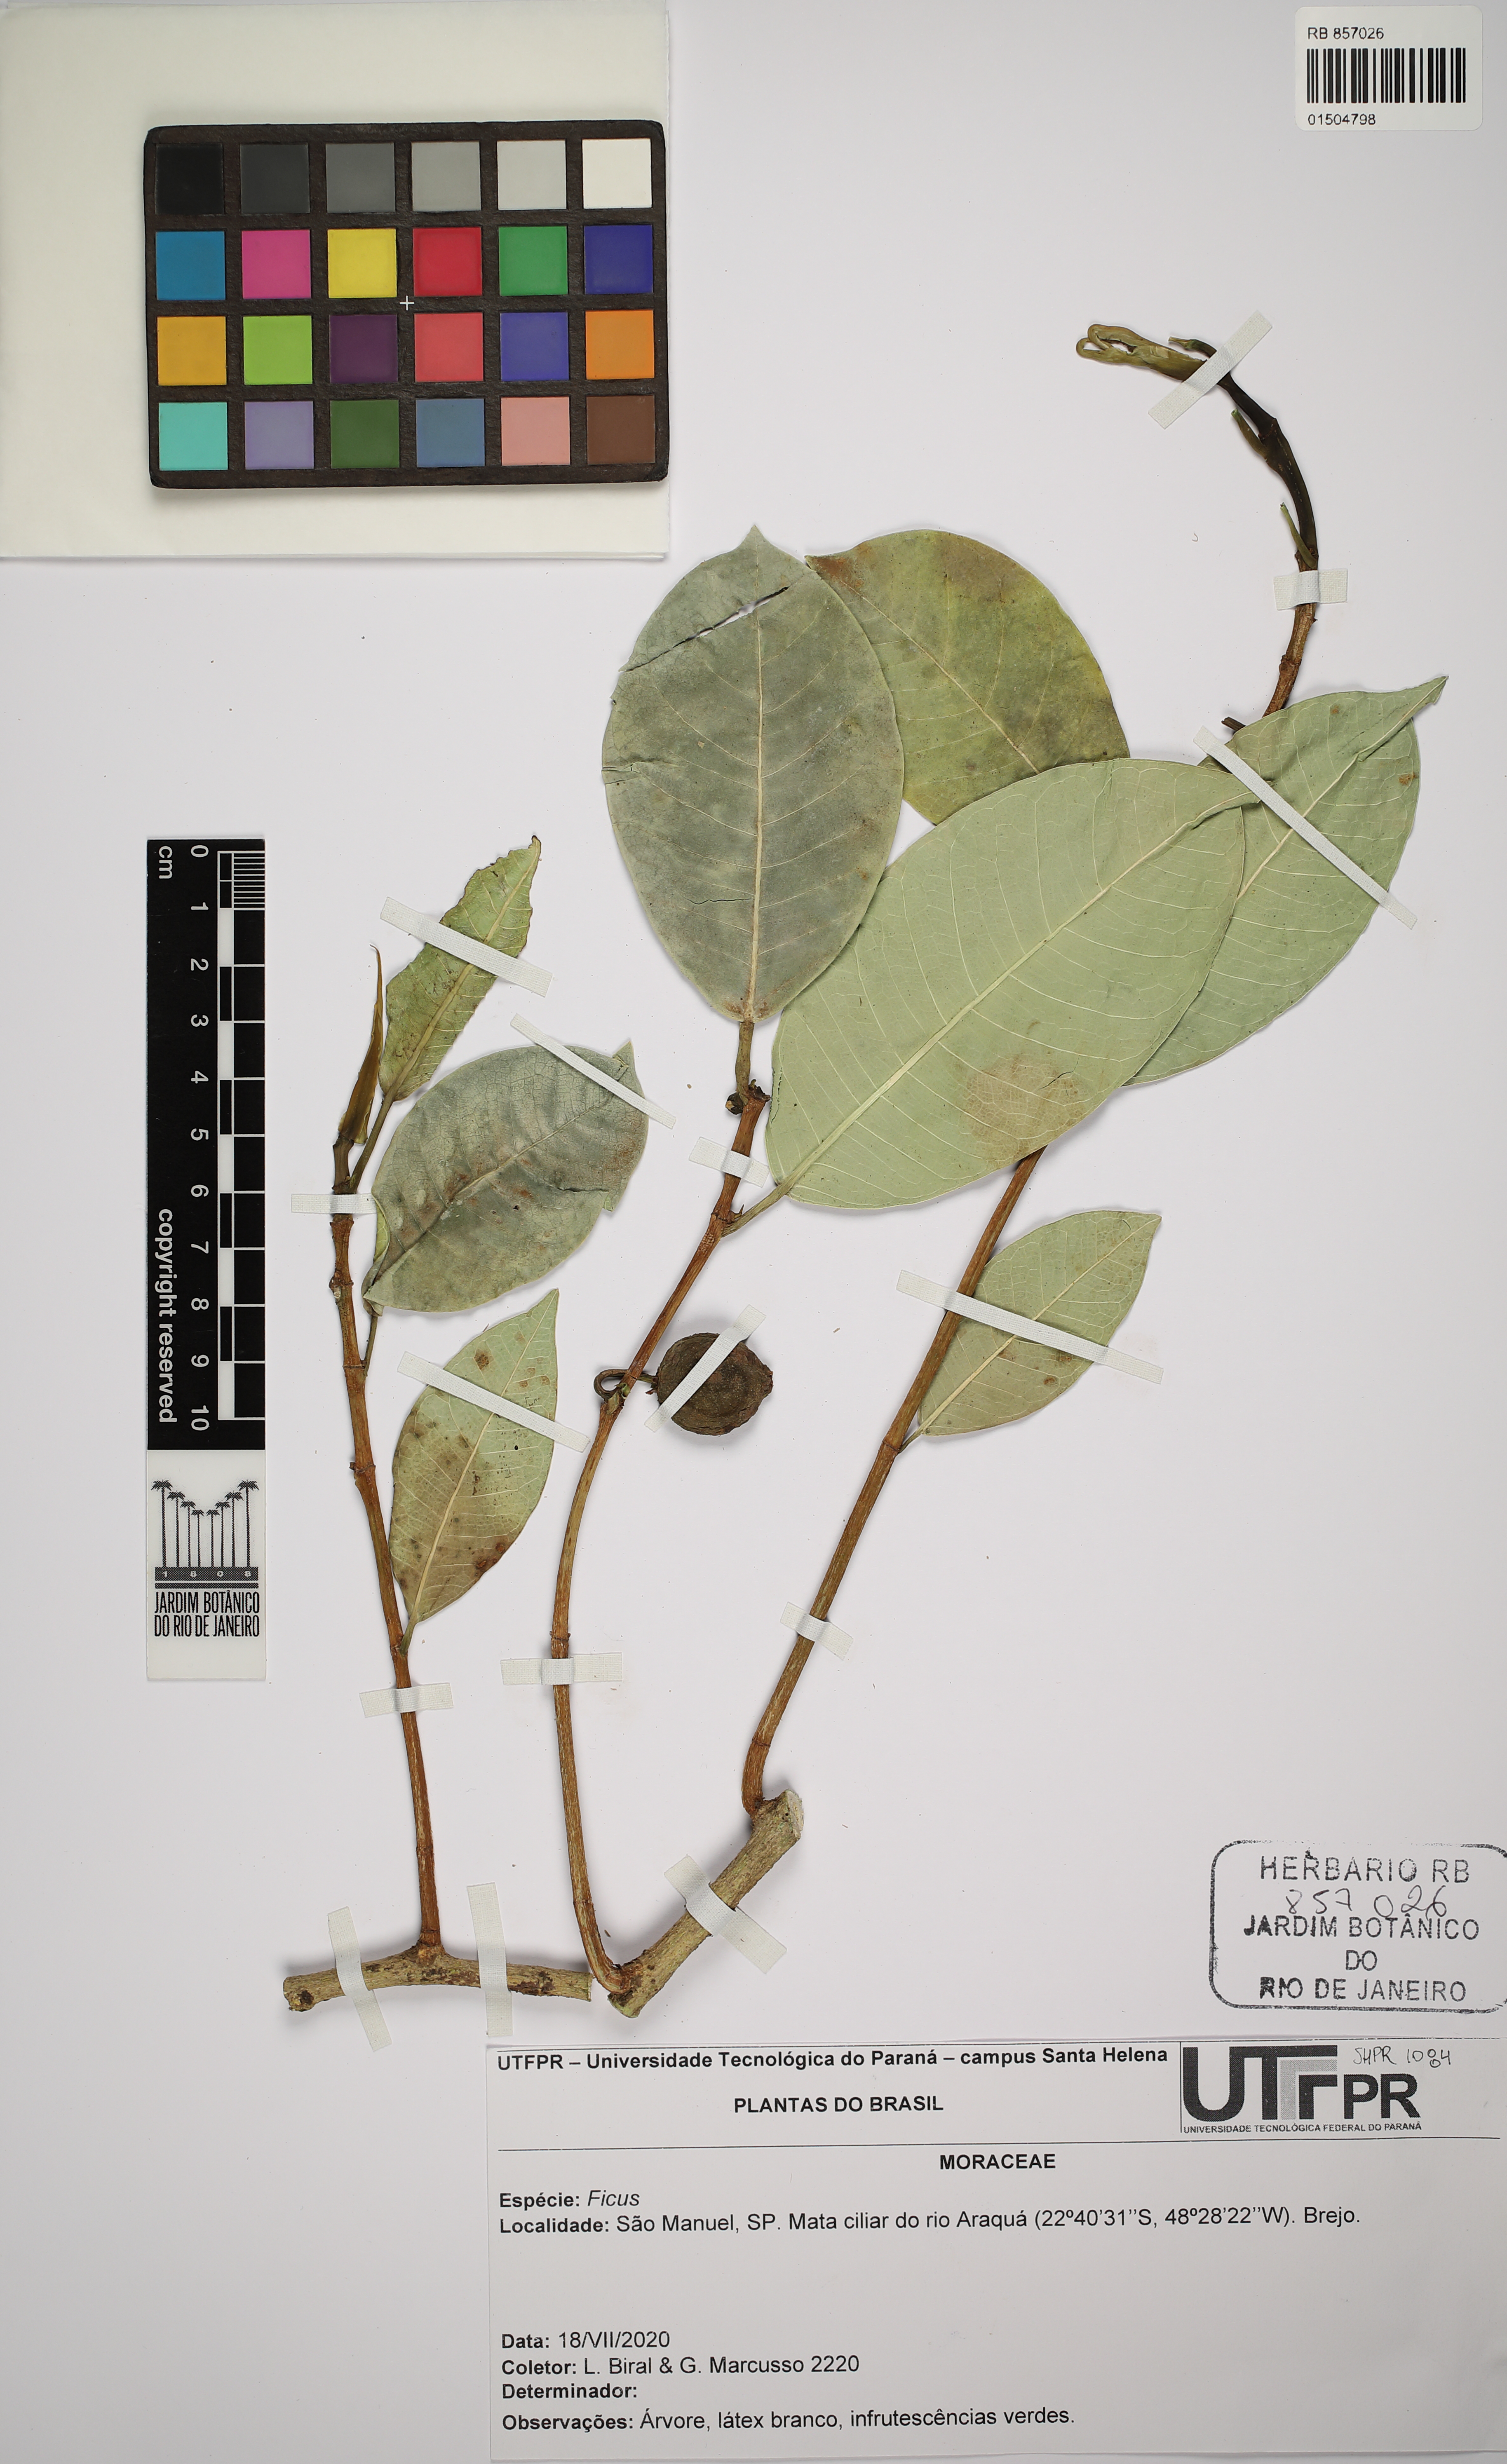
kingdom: Plantae
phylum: Tracheophyta
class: Magnoliopsida
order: Rosales
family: Moraceae
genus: Ficus
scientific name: Ficus
